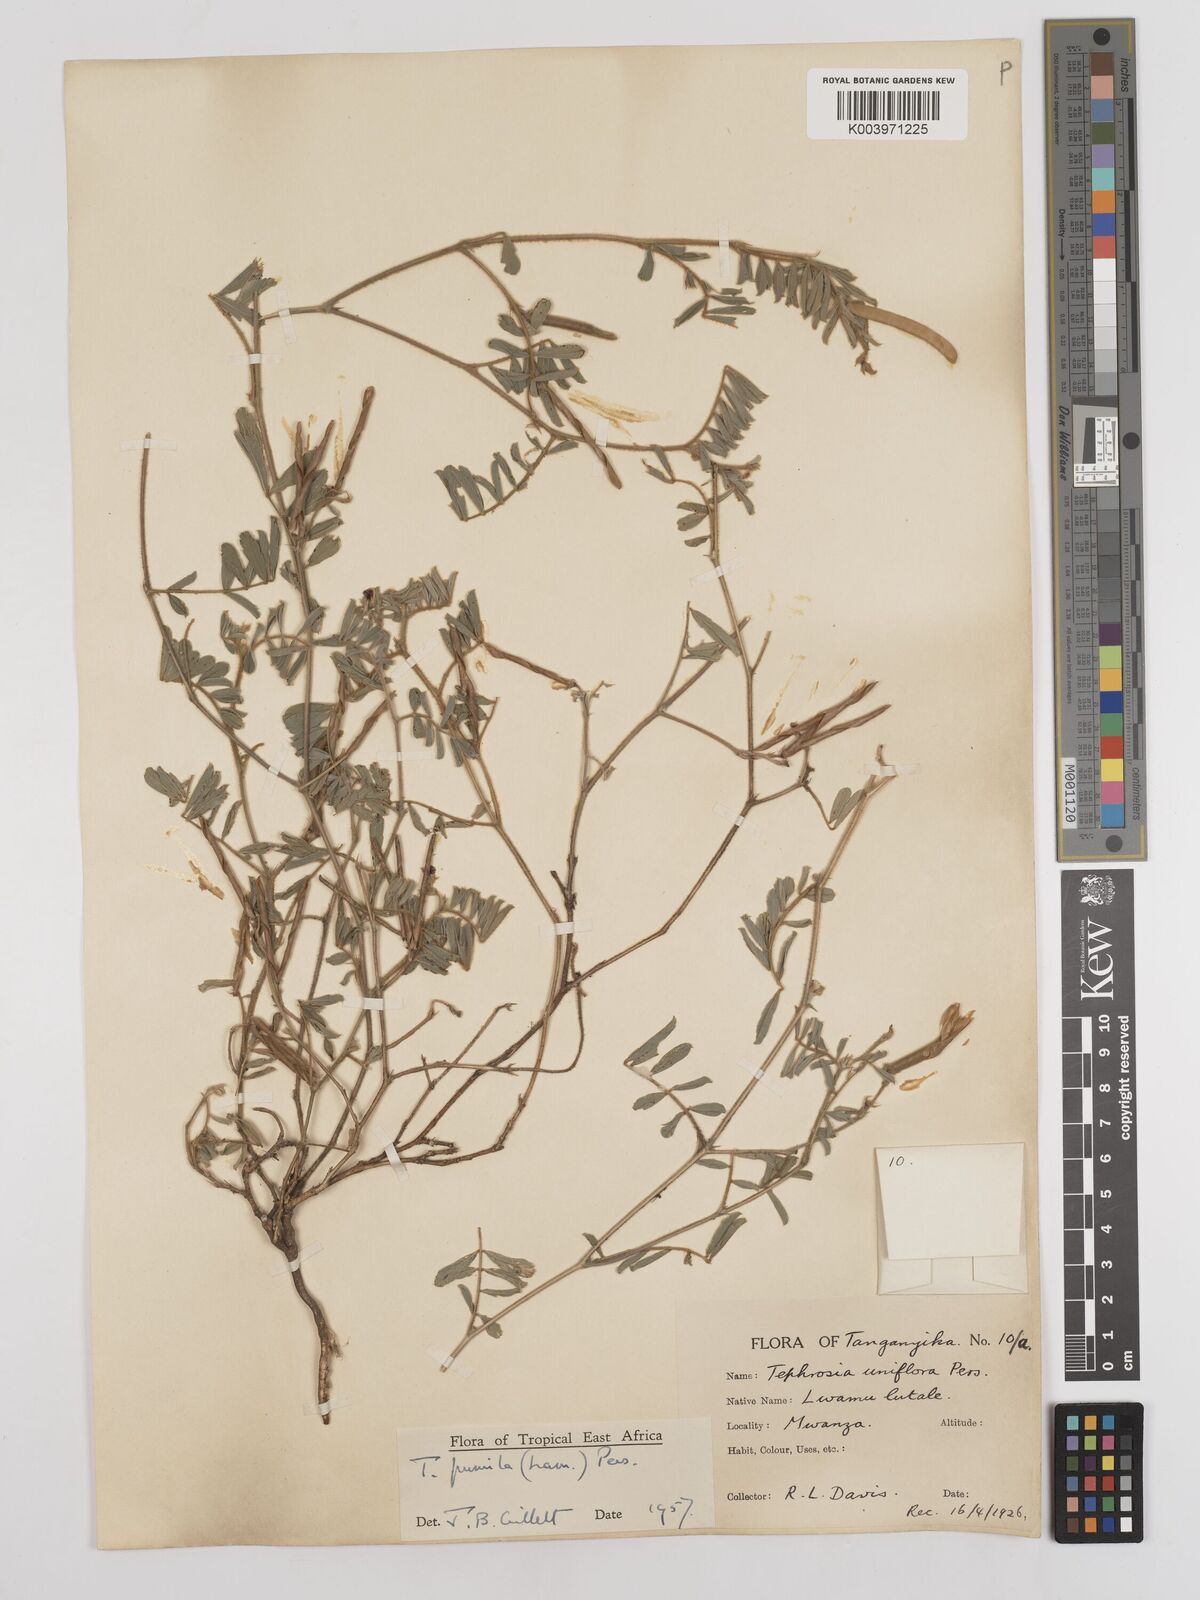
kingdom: Plantae
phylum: Tracheophyta
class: Magnoliopsida
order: Fabales
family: Fabaceae
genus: Tephrosia
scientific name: Tephrosia pumila
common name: Indigo sauvage
